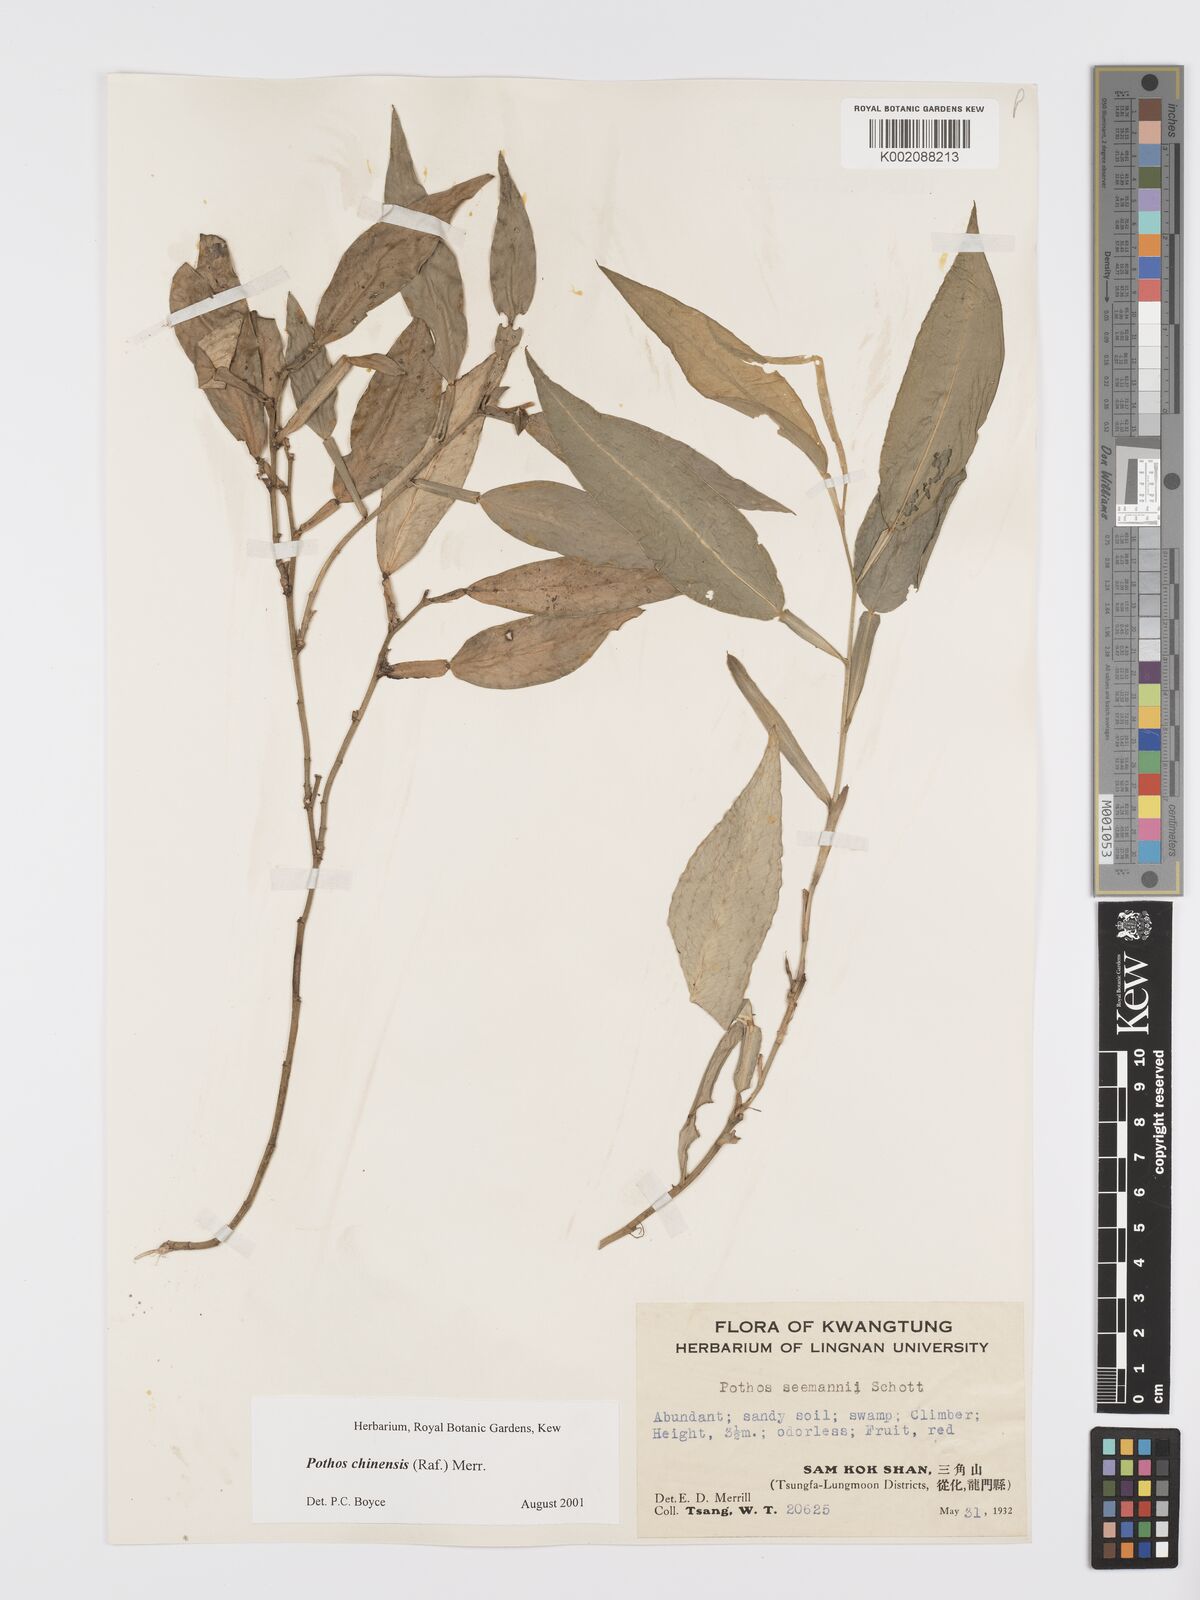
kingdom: Plantae
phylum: Tracheophyta
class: Liliopsida
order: Alismatales
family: Araceae
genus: Pothos
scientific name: Pothos chinensis
